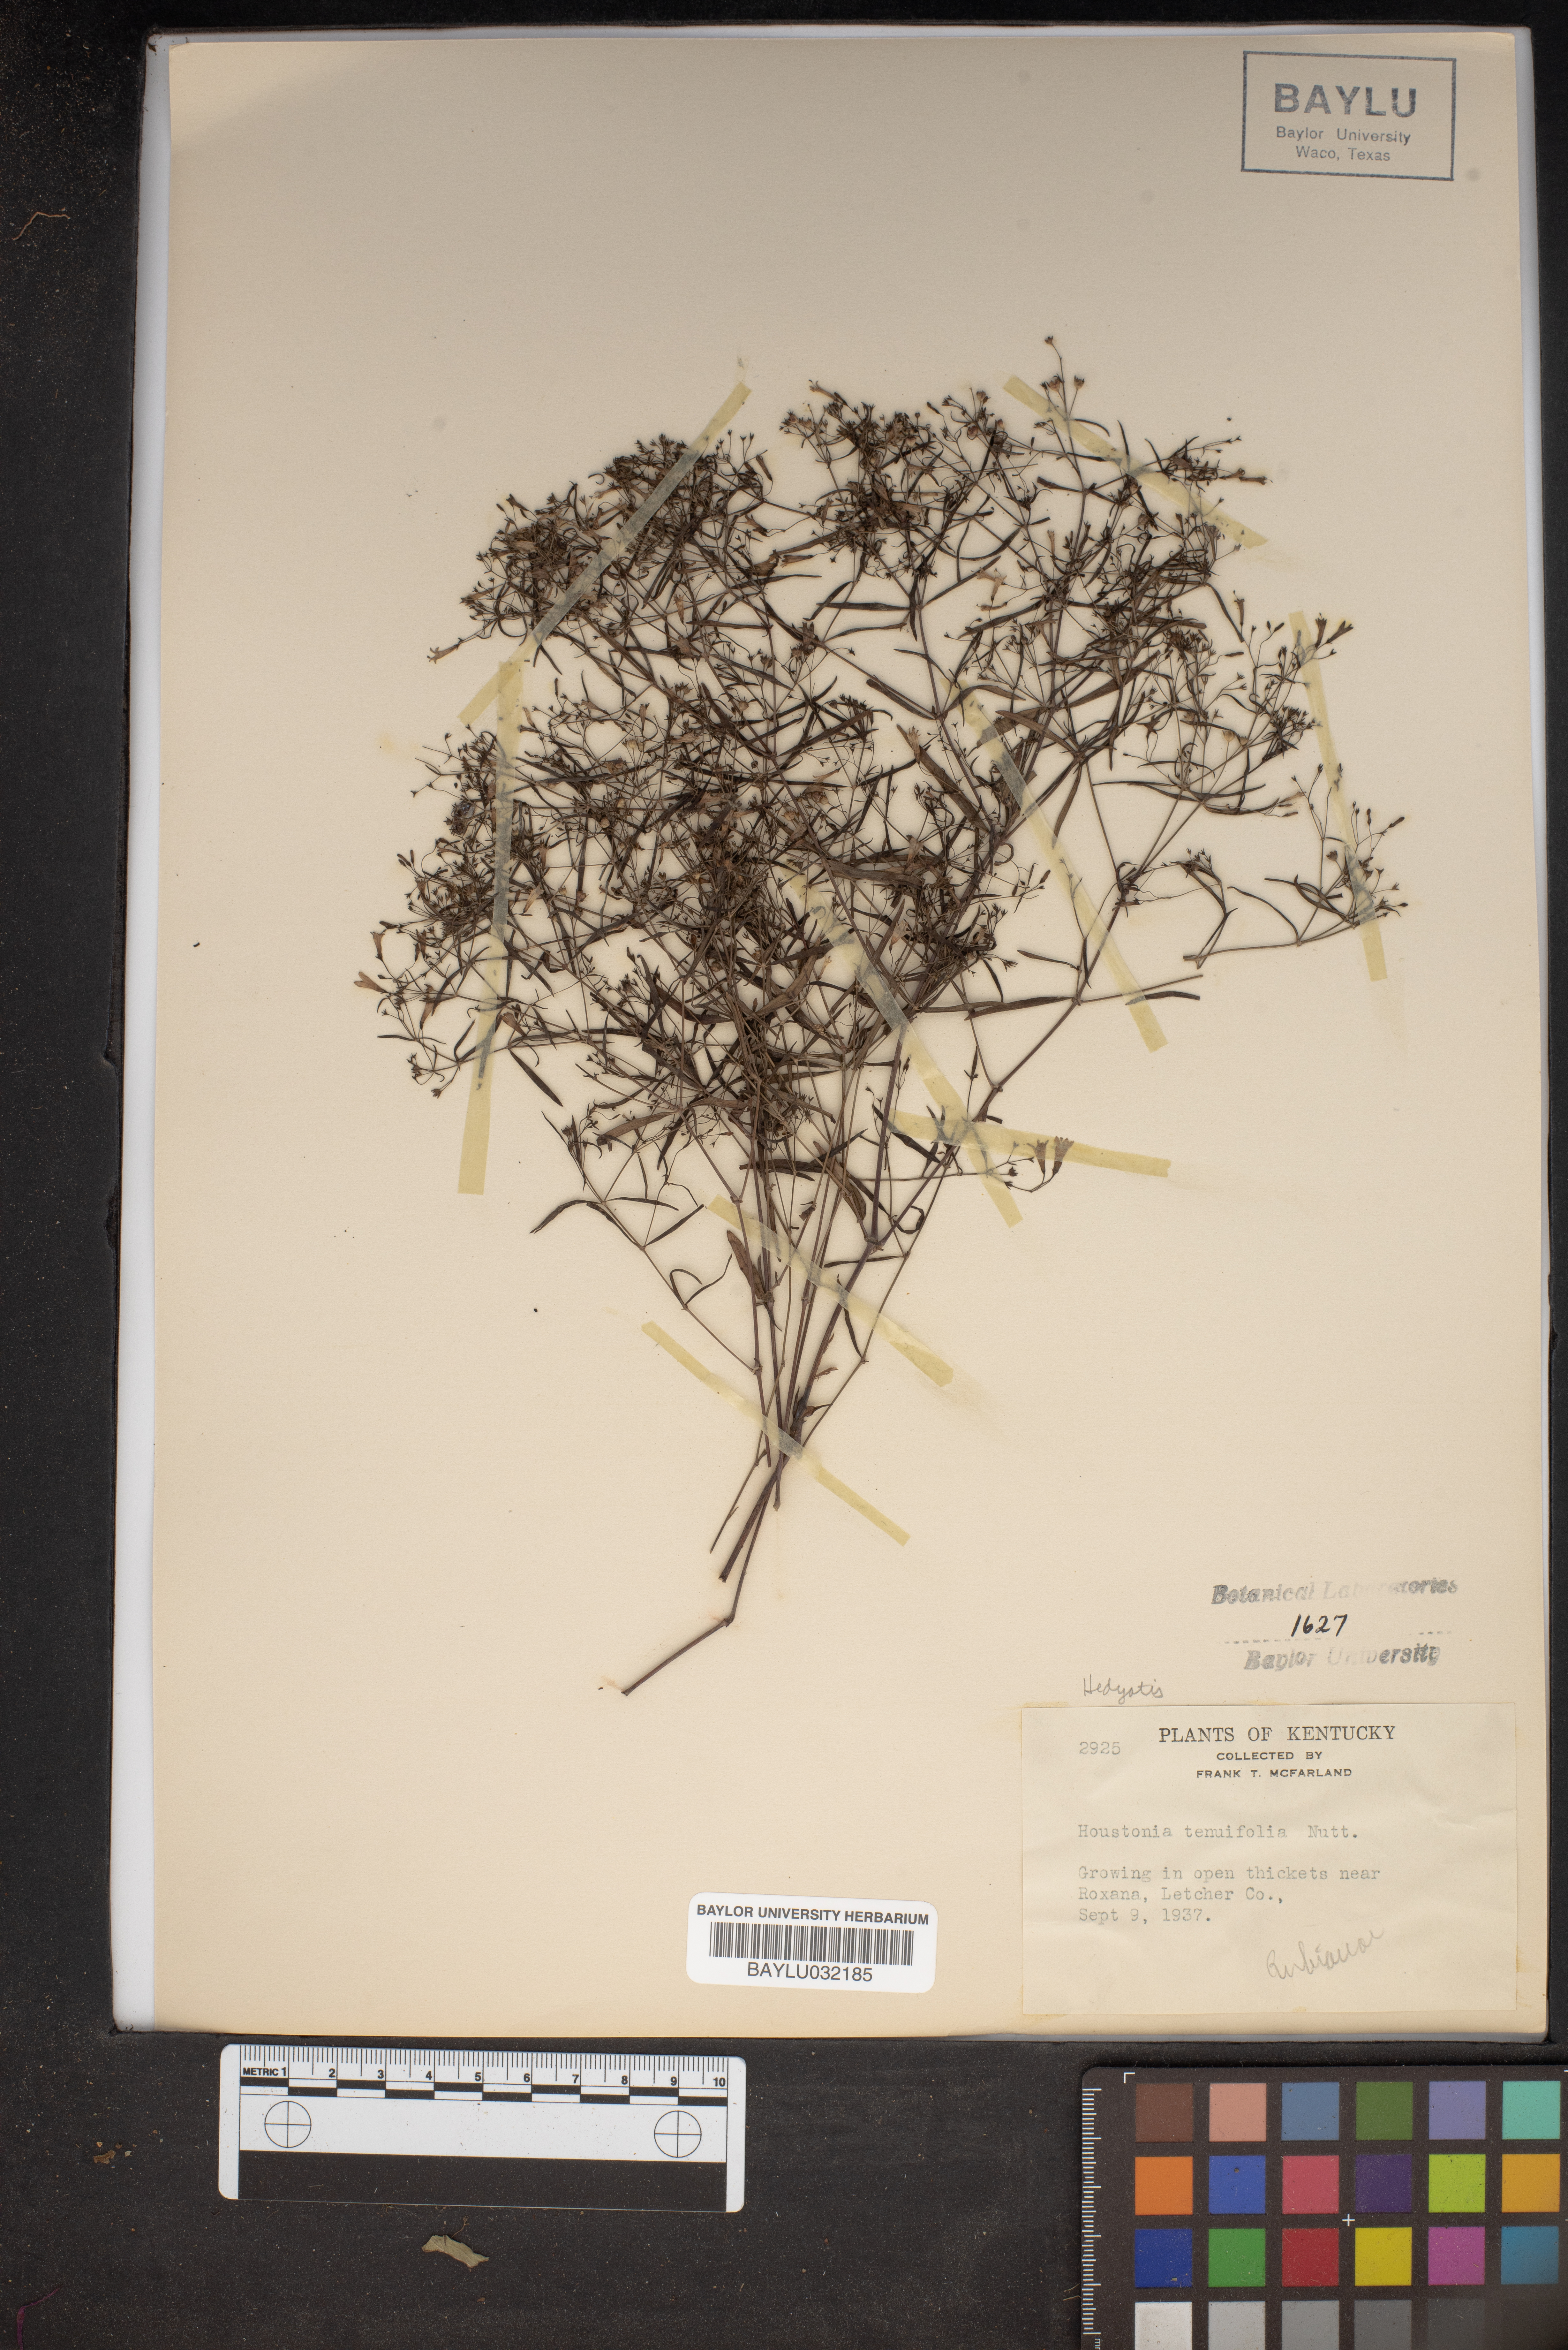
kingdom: Plantae
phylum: Tracheophyta
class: Magnoliopsida
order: Gentianales
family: Rubiaceae
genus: Houstonia
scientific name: Houstonia longifolia
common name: Long-leaved bluets
